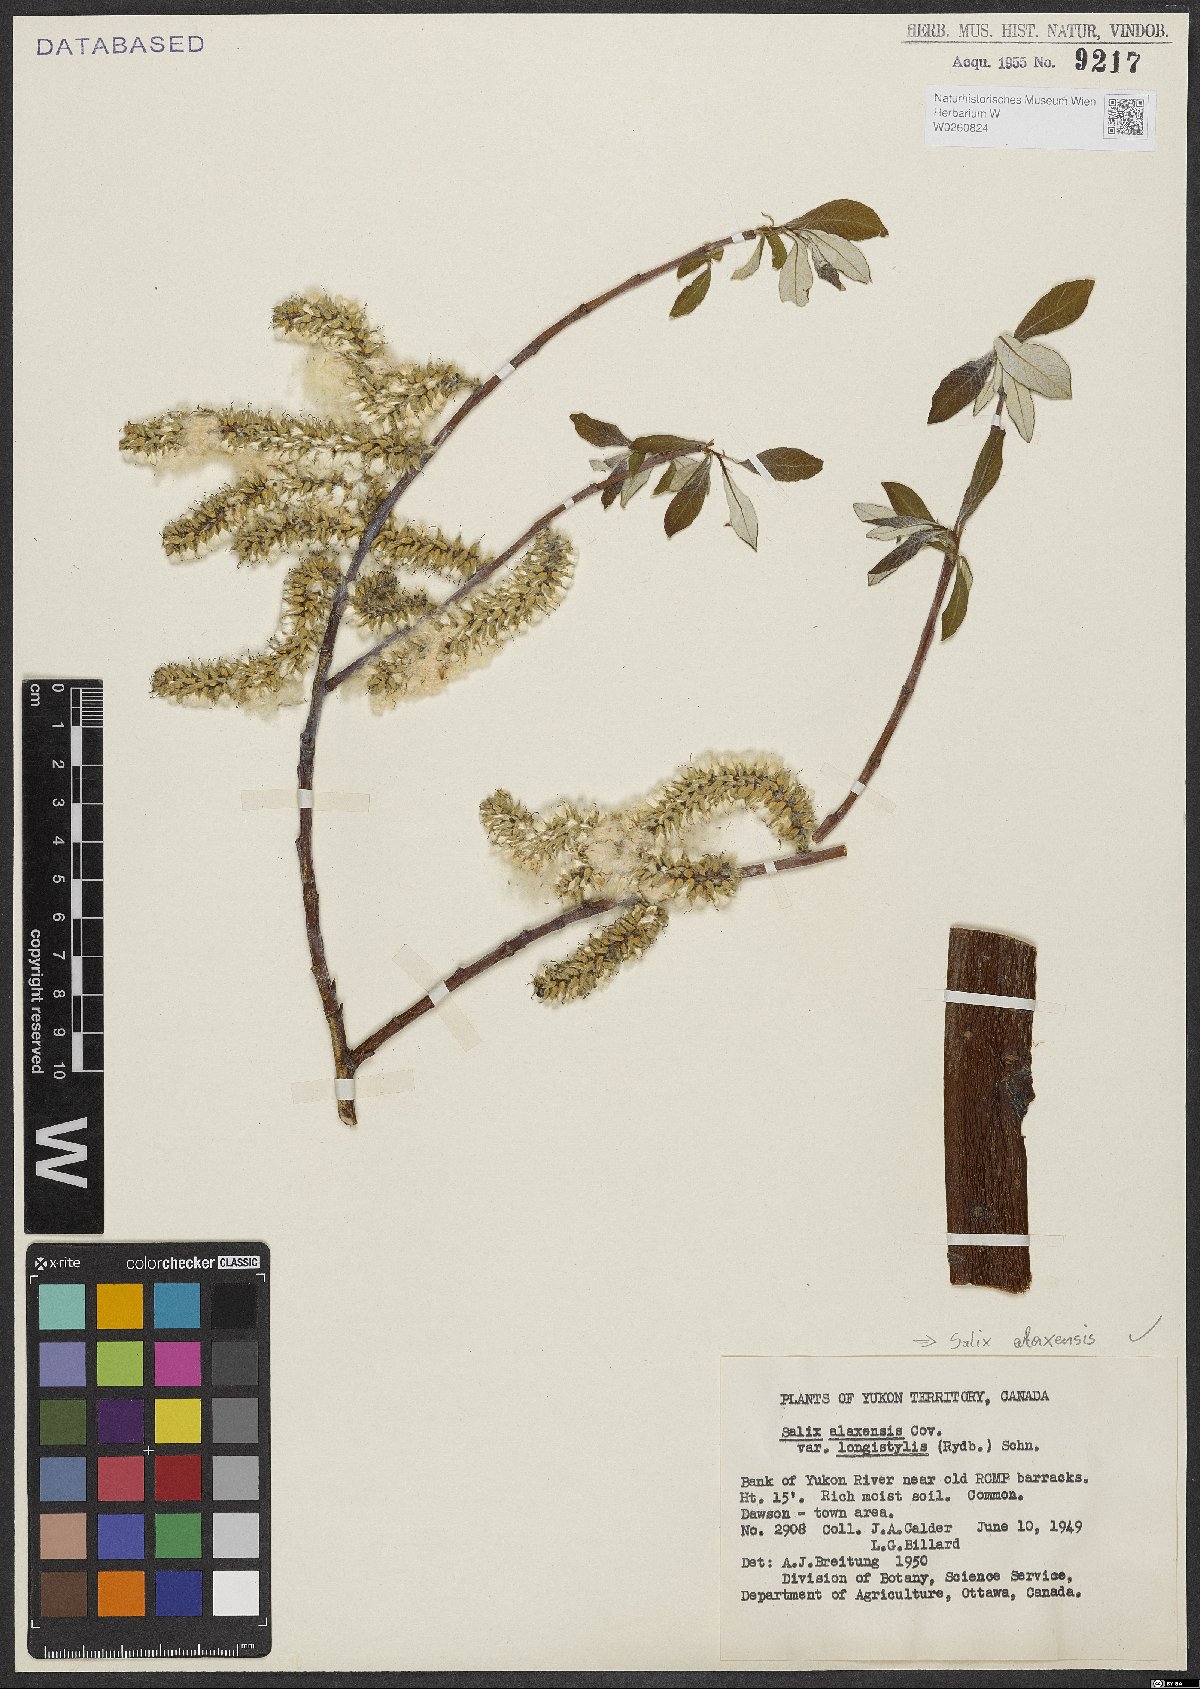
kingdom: Plantae
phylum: Tracheophyta
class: Magnoliopsida
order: Malpighiales
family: Salicaceae
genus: Salix
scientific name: Salix alaxensis
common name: Feltleaf willow
